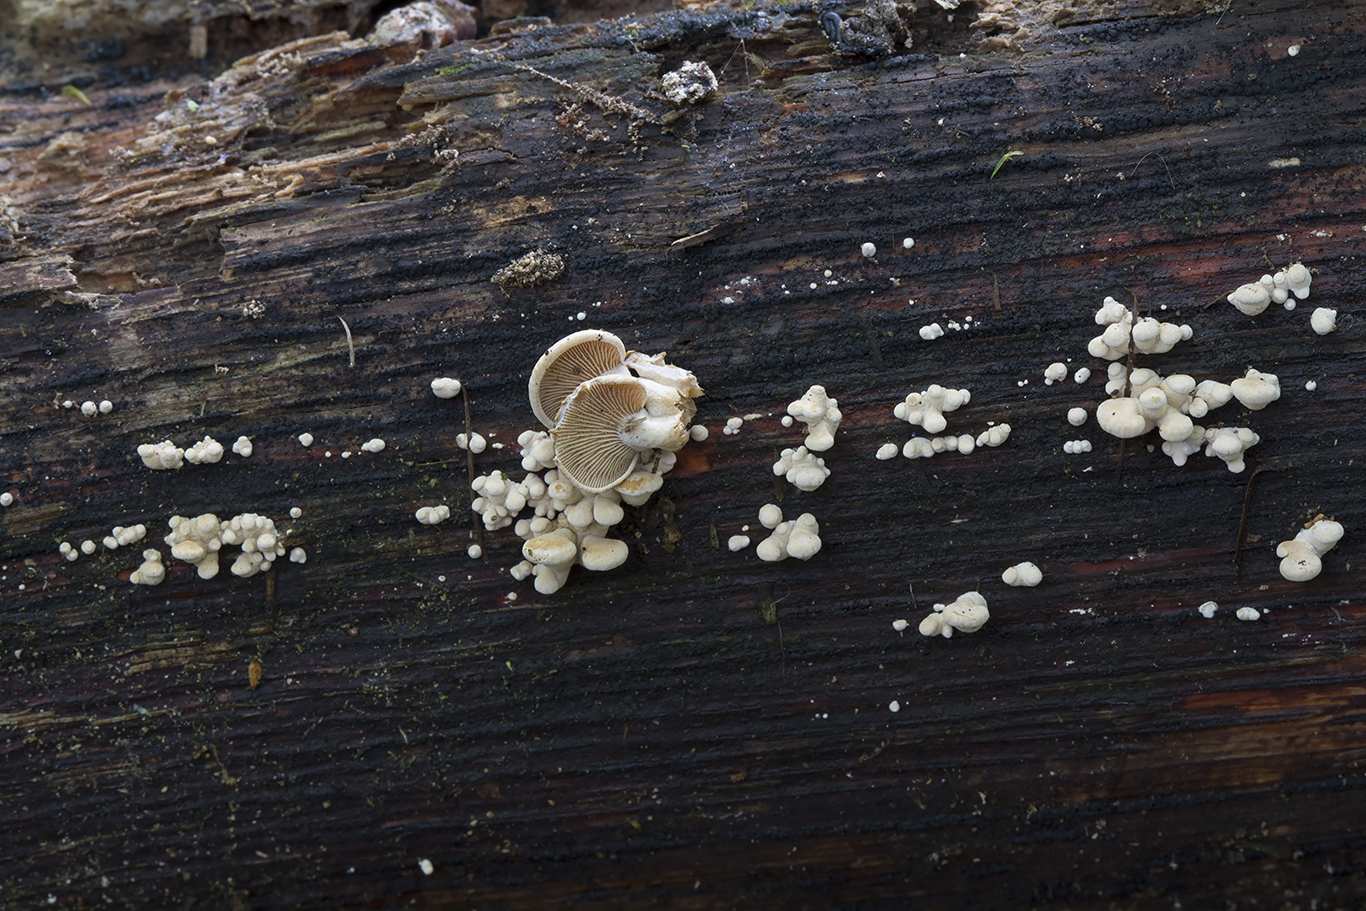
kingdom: Fungi
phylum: Basidiomycota
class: Agaricomycetes
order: Agaricales
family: Mycenaceae
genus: Panellus
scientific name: Panellus stipticus
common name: kliddet epaulethat
